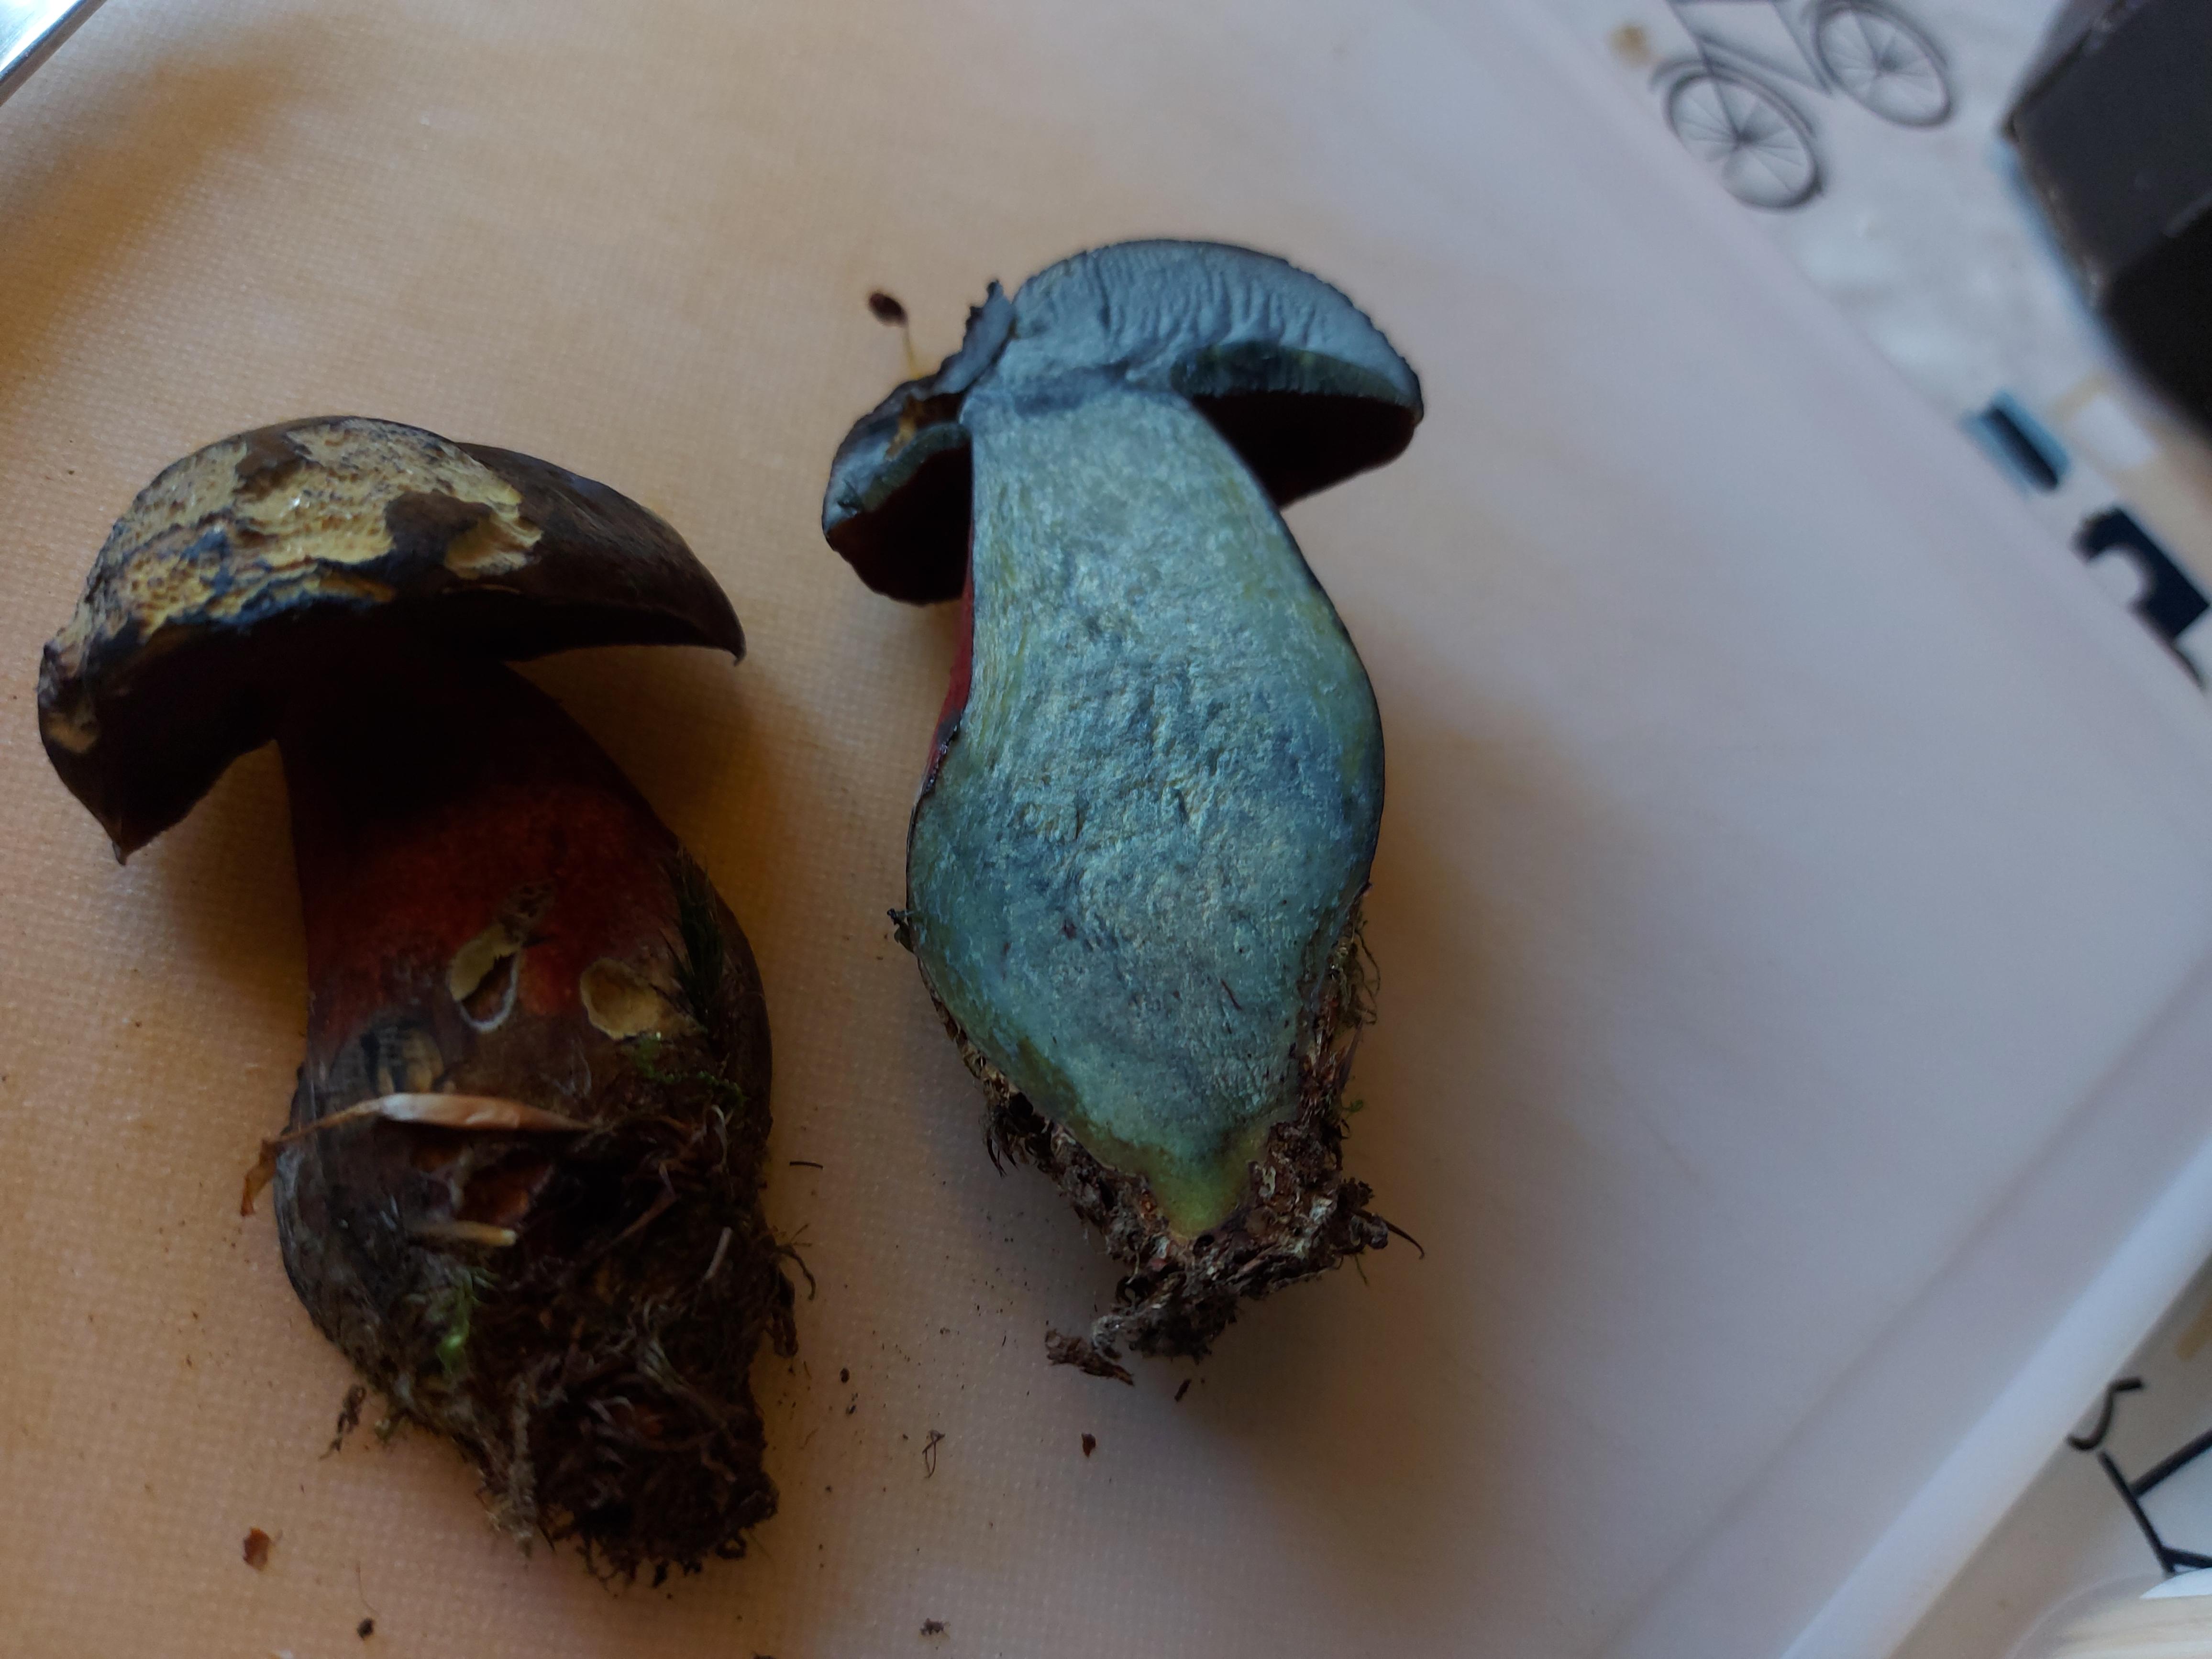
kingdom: Fungi
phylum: Basidiomycota
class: Agaricomycetes
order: Boletales
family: Boletaceae
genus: Neoboletus
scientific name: Neoboletus erythropus
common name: punktstokket indigorørhat
